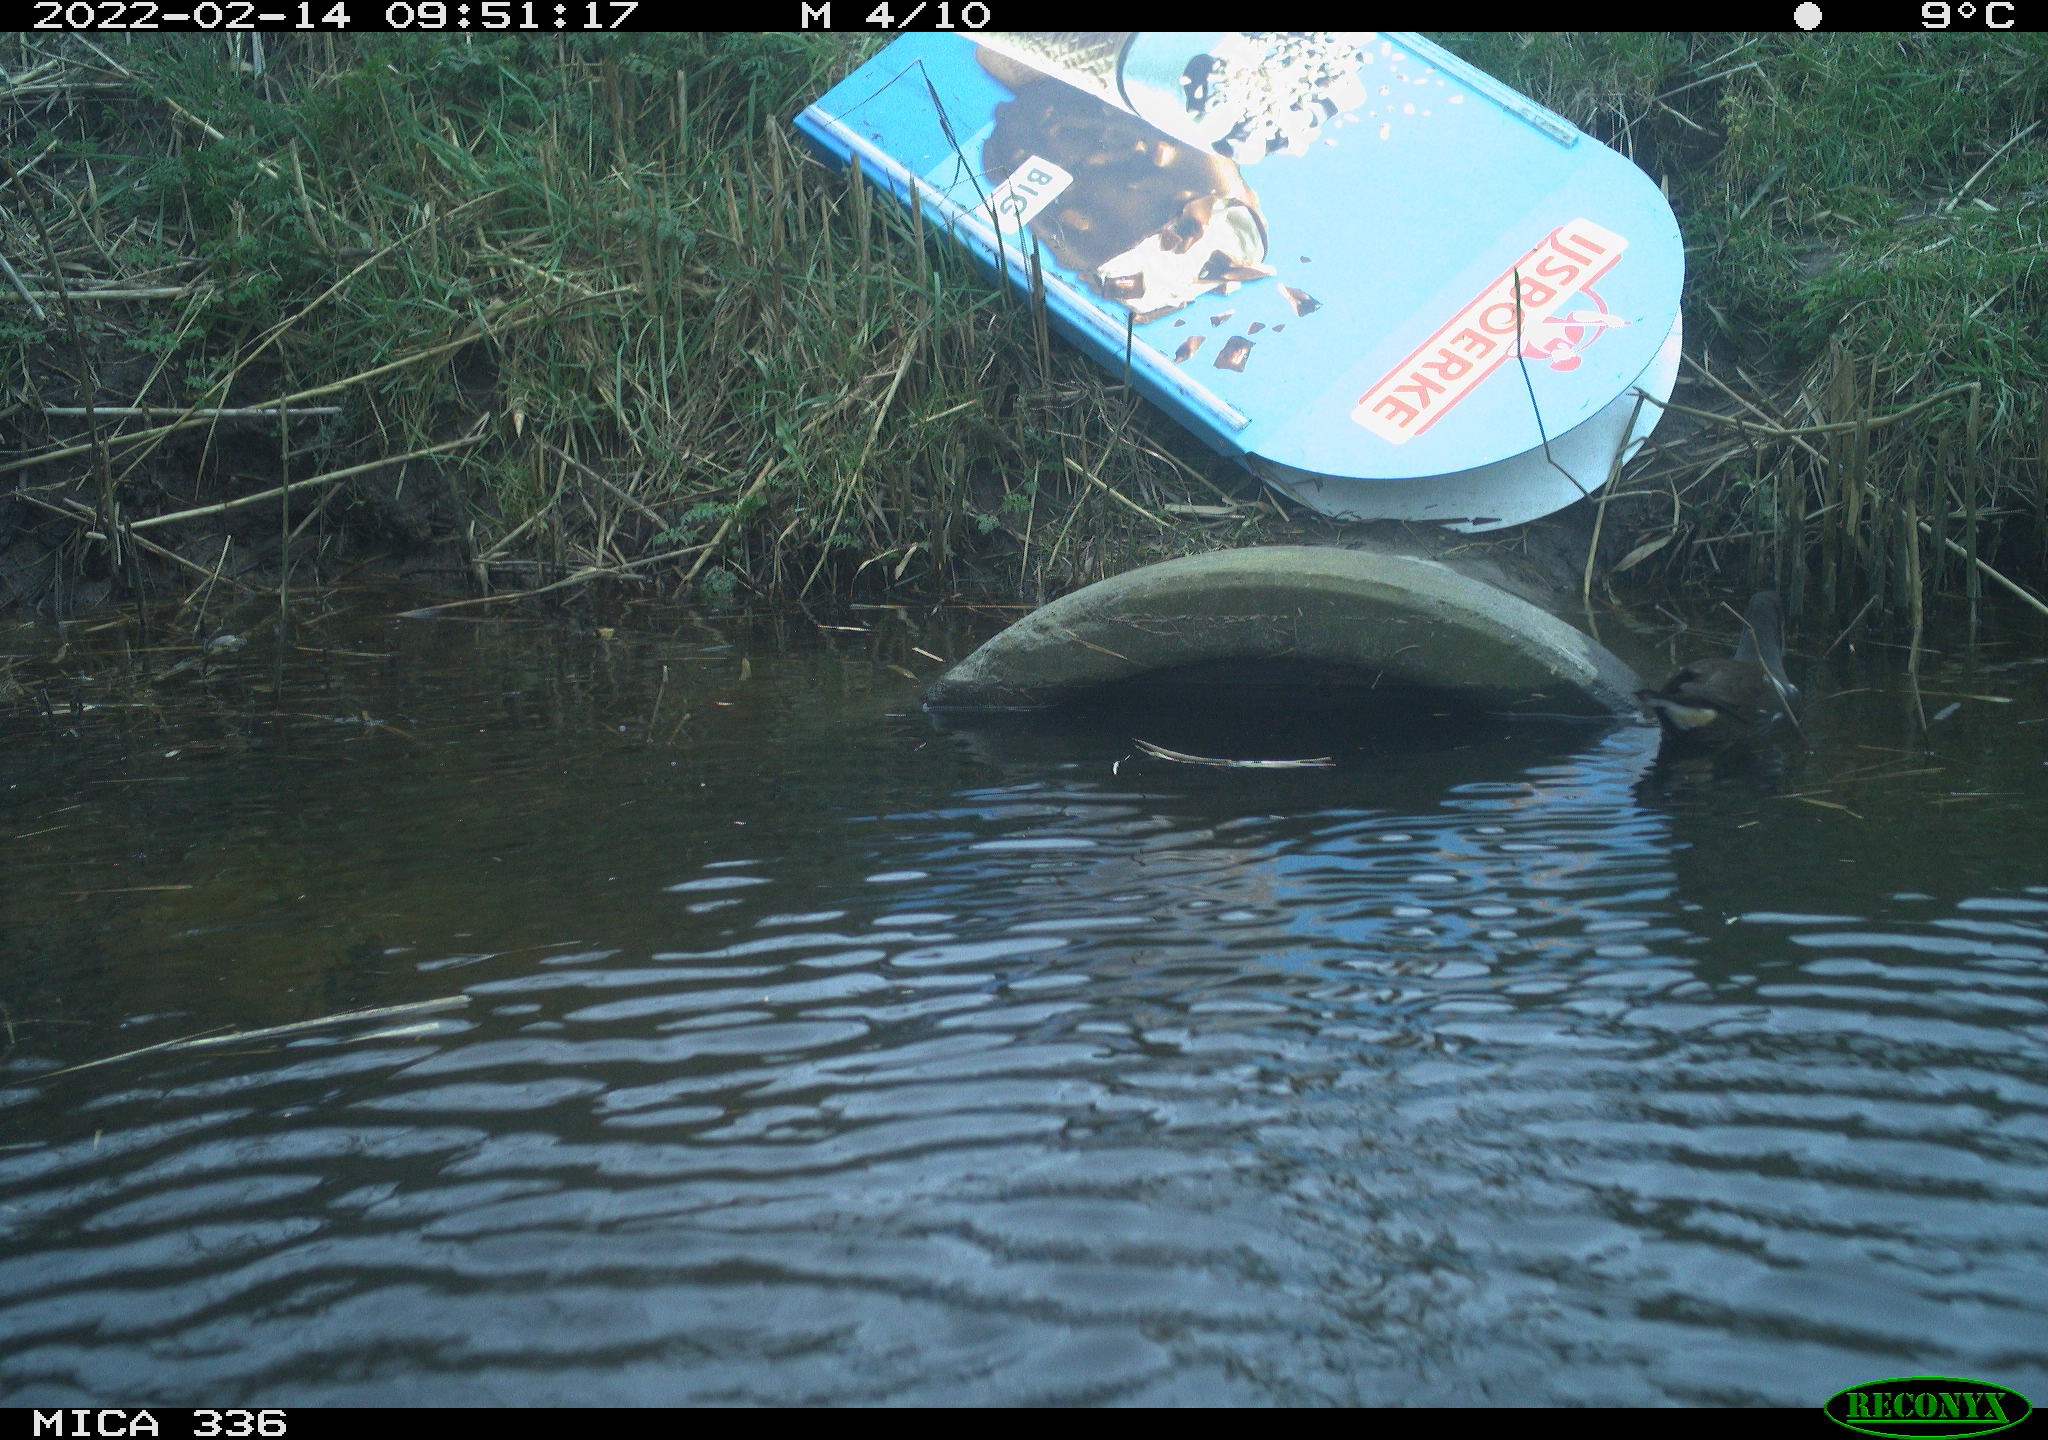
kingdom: Animalia
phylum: Chordata
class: Aves
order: Gruiformes
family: Rallidae
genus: Gallinula
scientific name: Gallinula chloropus
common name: Common moorhen
